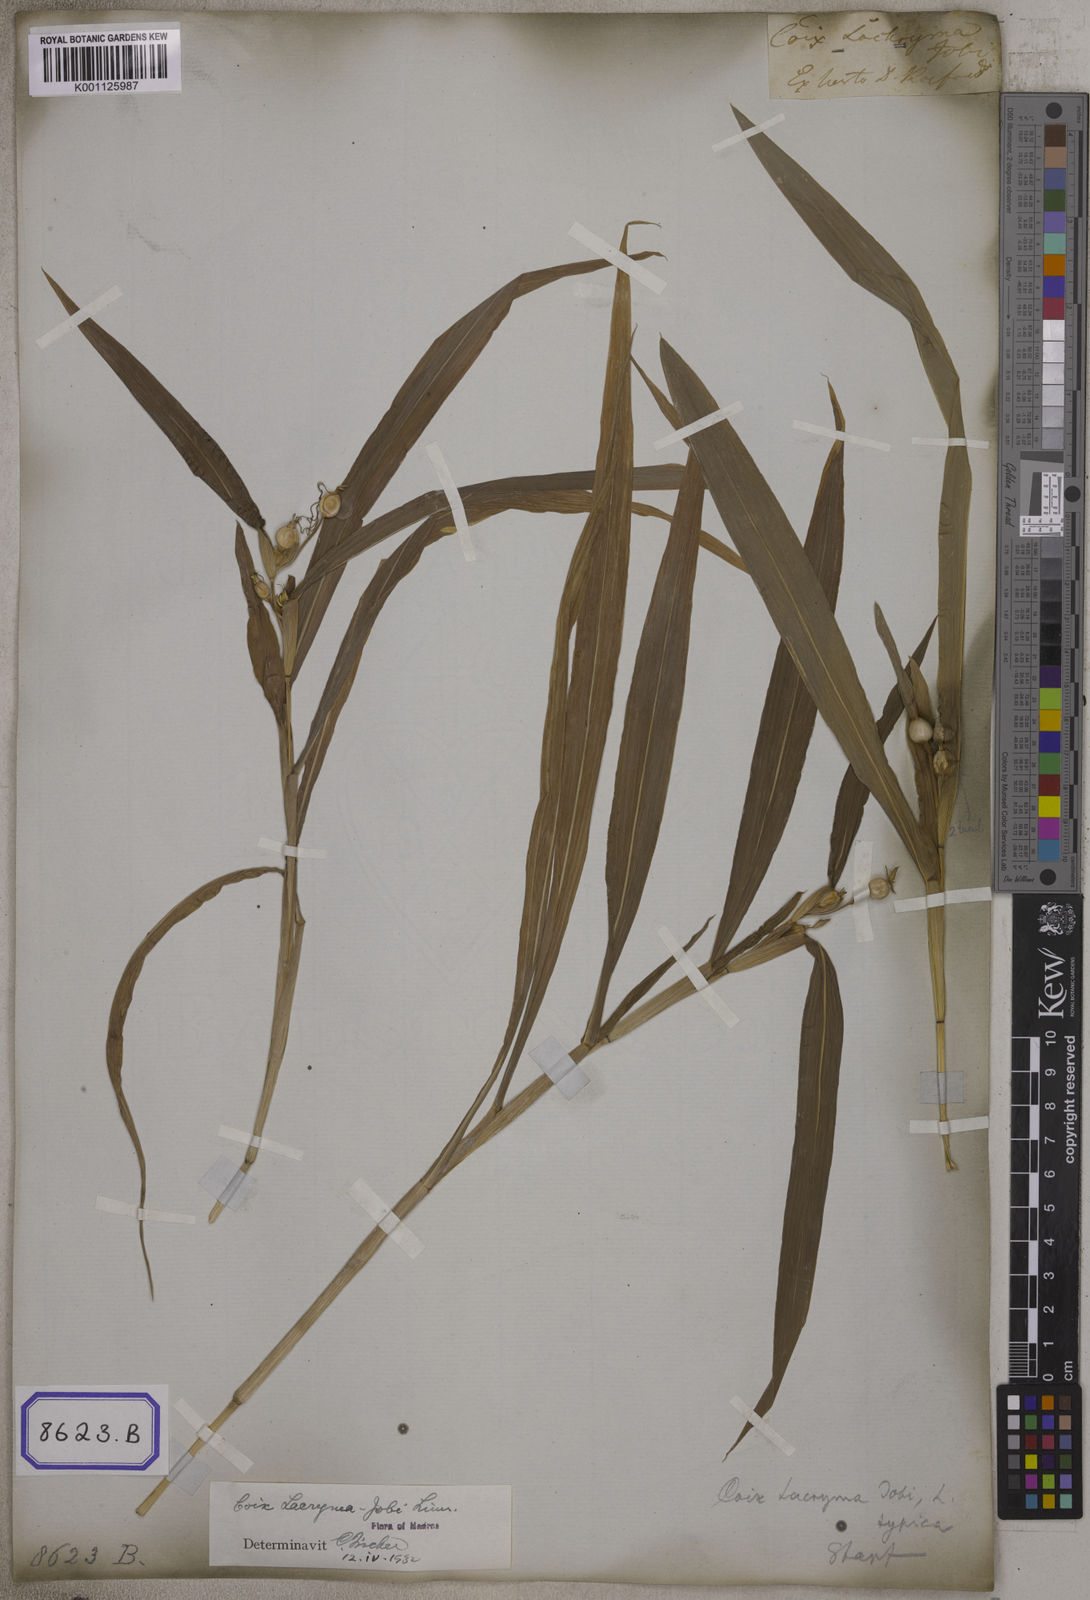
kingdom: Plantae
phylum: Tracheophyta
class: Liliopsida
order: Poales
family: Poaceae
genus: Coix
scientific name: Coix lacryma-jobi
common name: Job's tears
